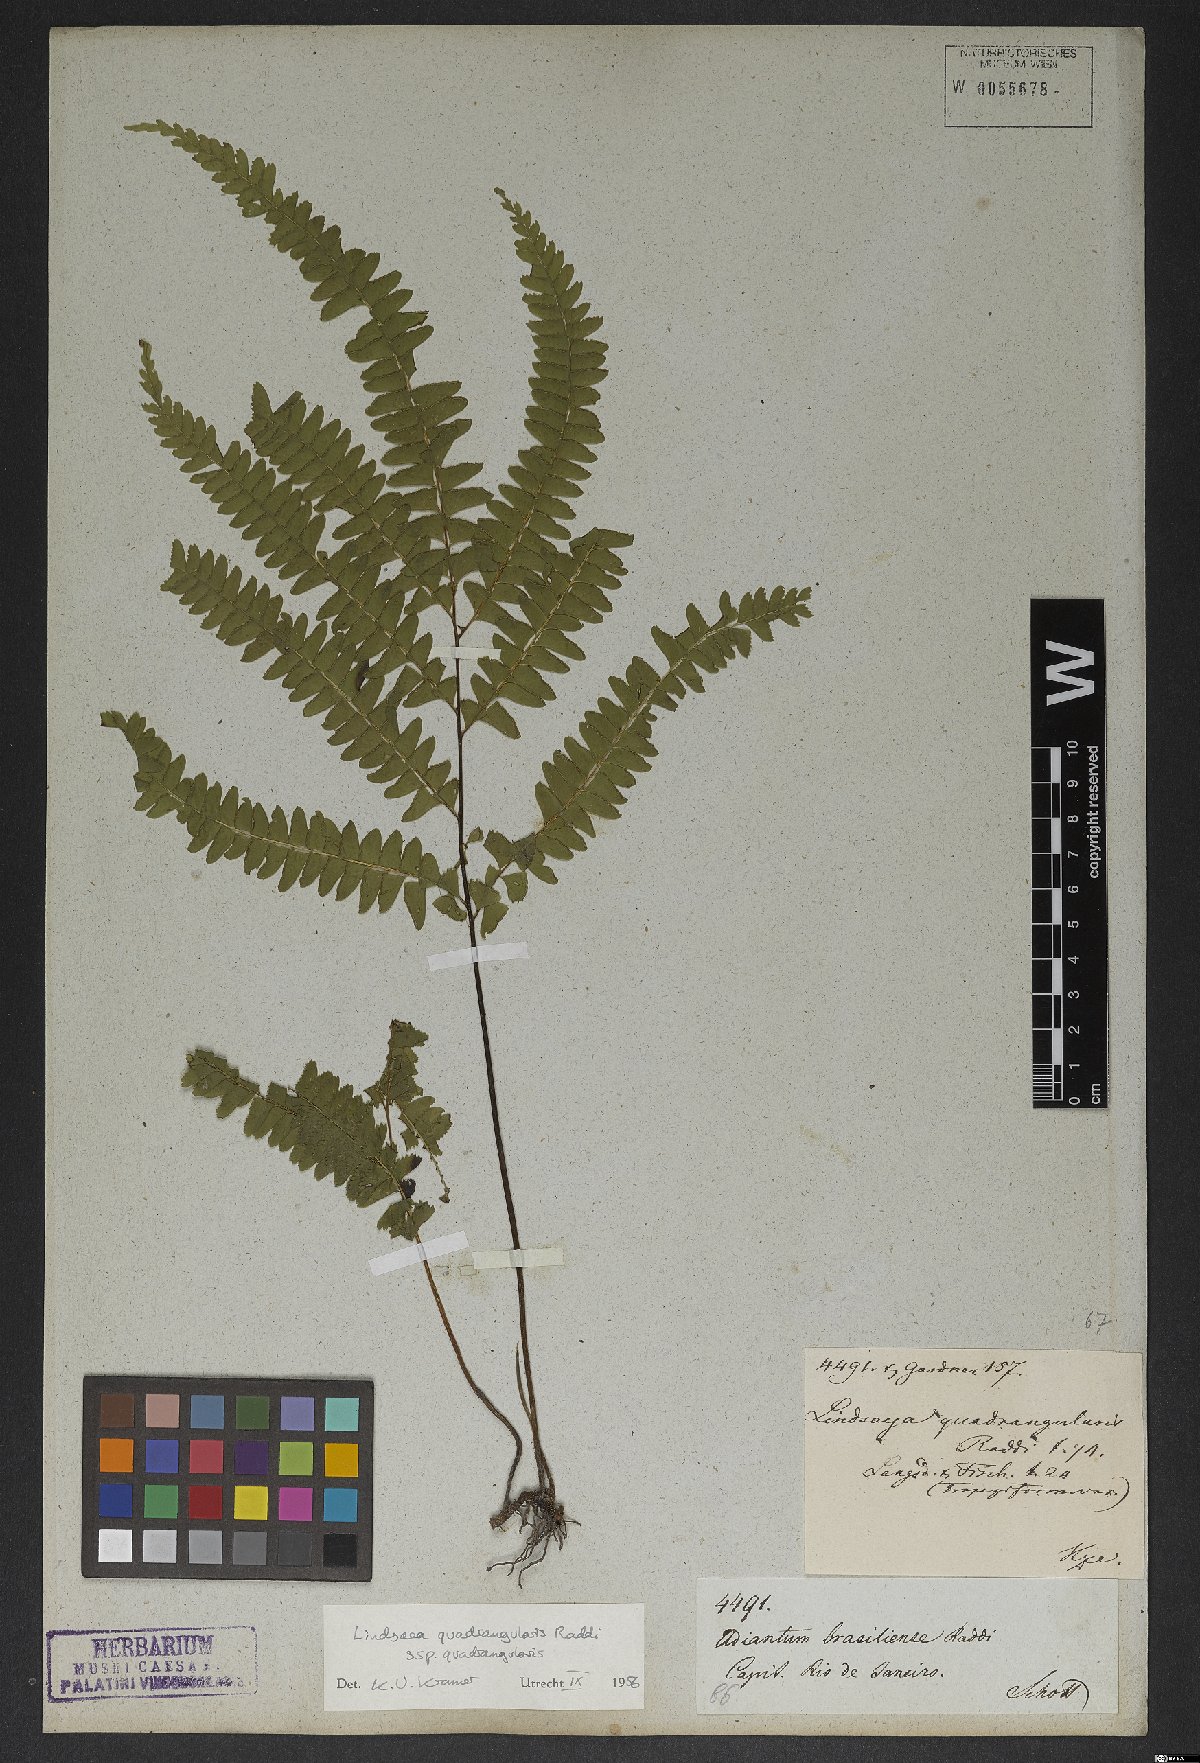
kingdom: Plantae
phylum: Tracheophyta
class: Polypodiopsida
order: Polypodiales
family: Lindsaeaceae
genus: Lindsaea
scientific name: Lindsaea quadrangularis
